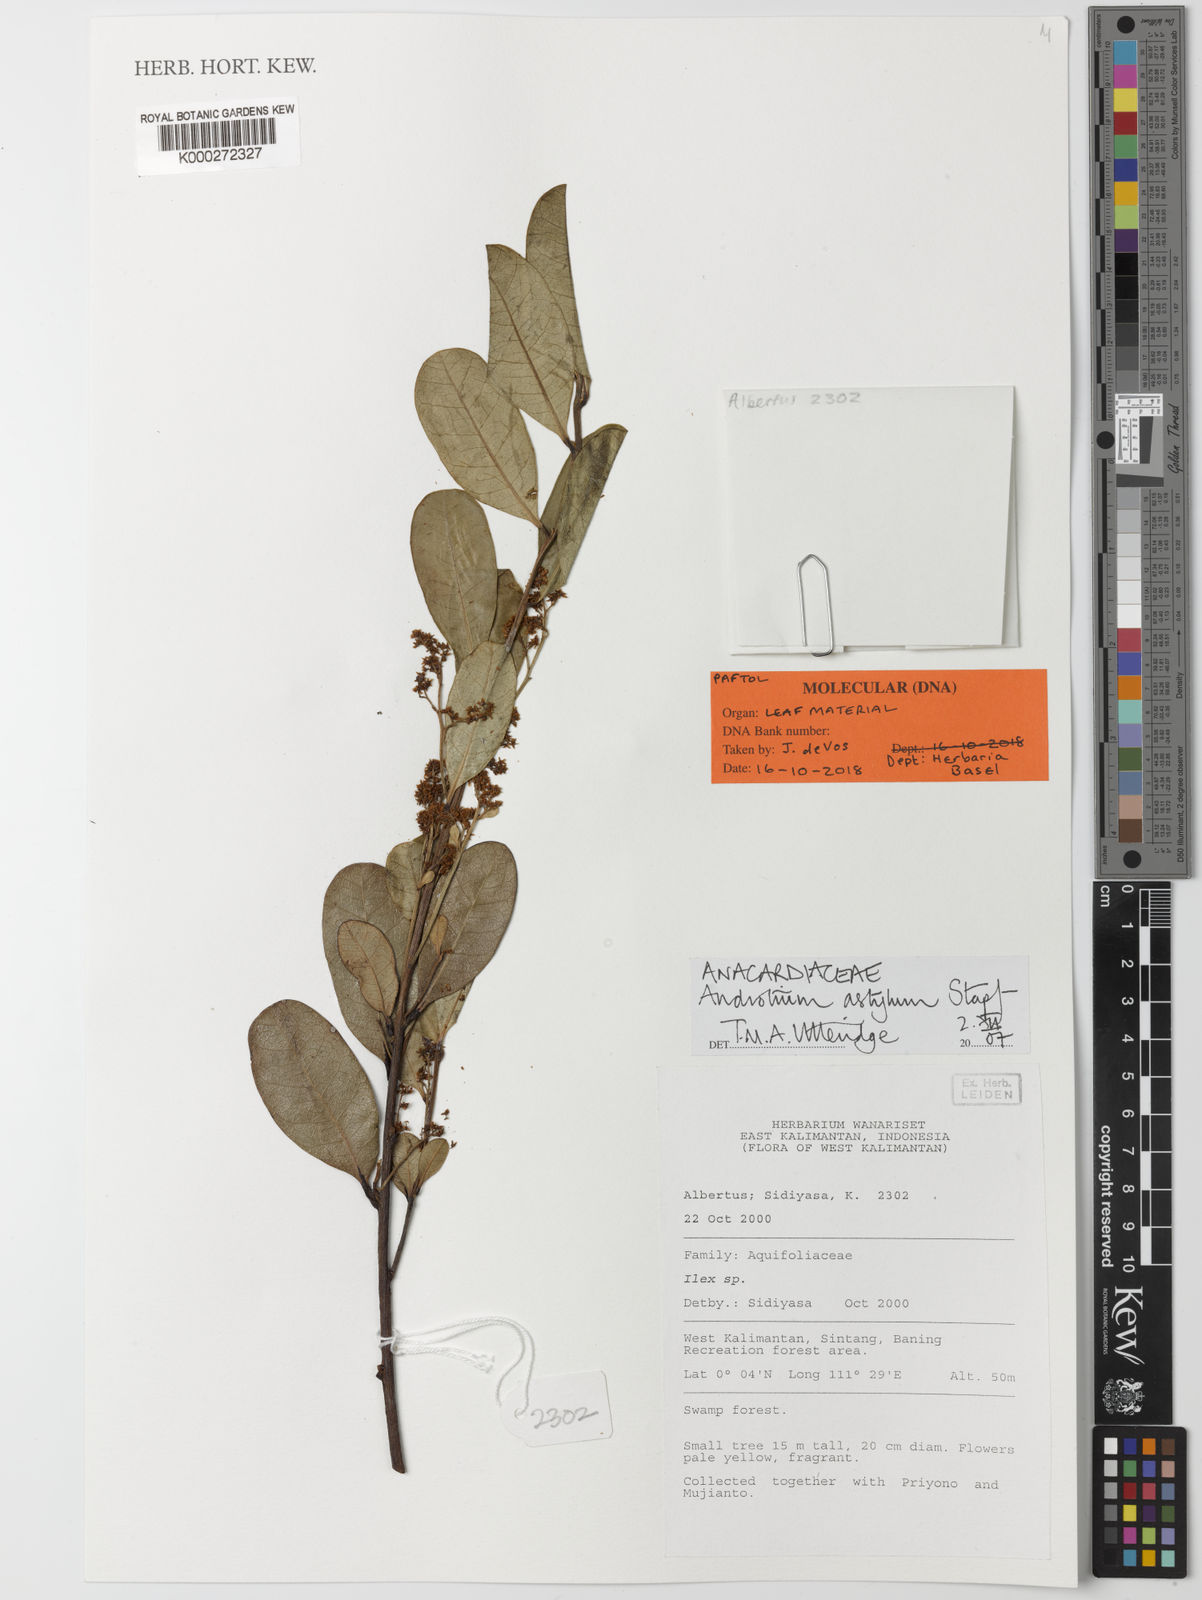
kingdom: Plantae
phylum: Tracheophyta
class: Magnoliopsida
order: Sapindales
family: Anacardiaceae
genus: Androtium
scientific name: Androtium astylum
